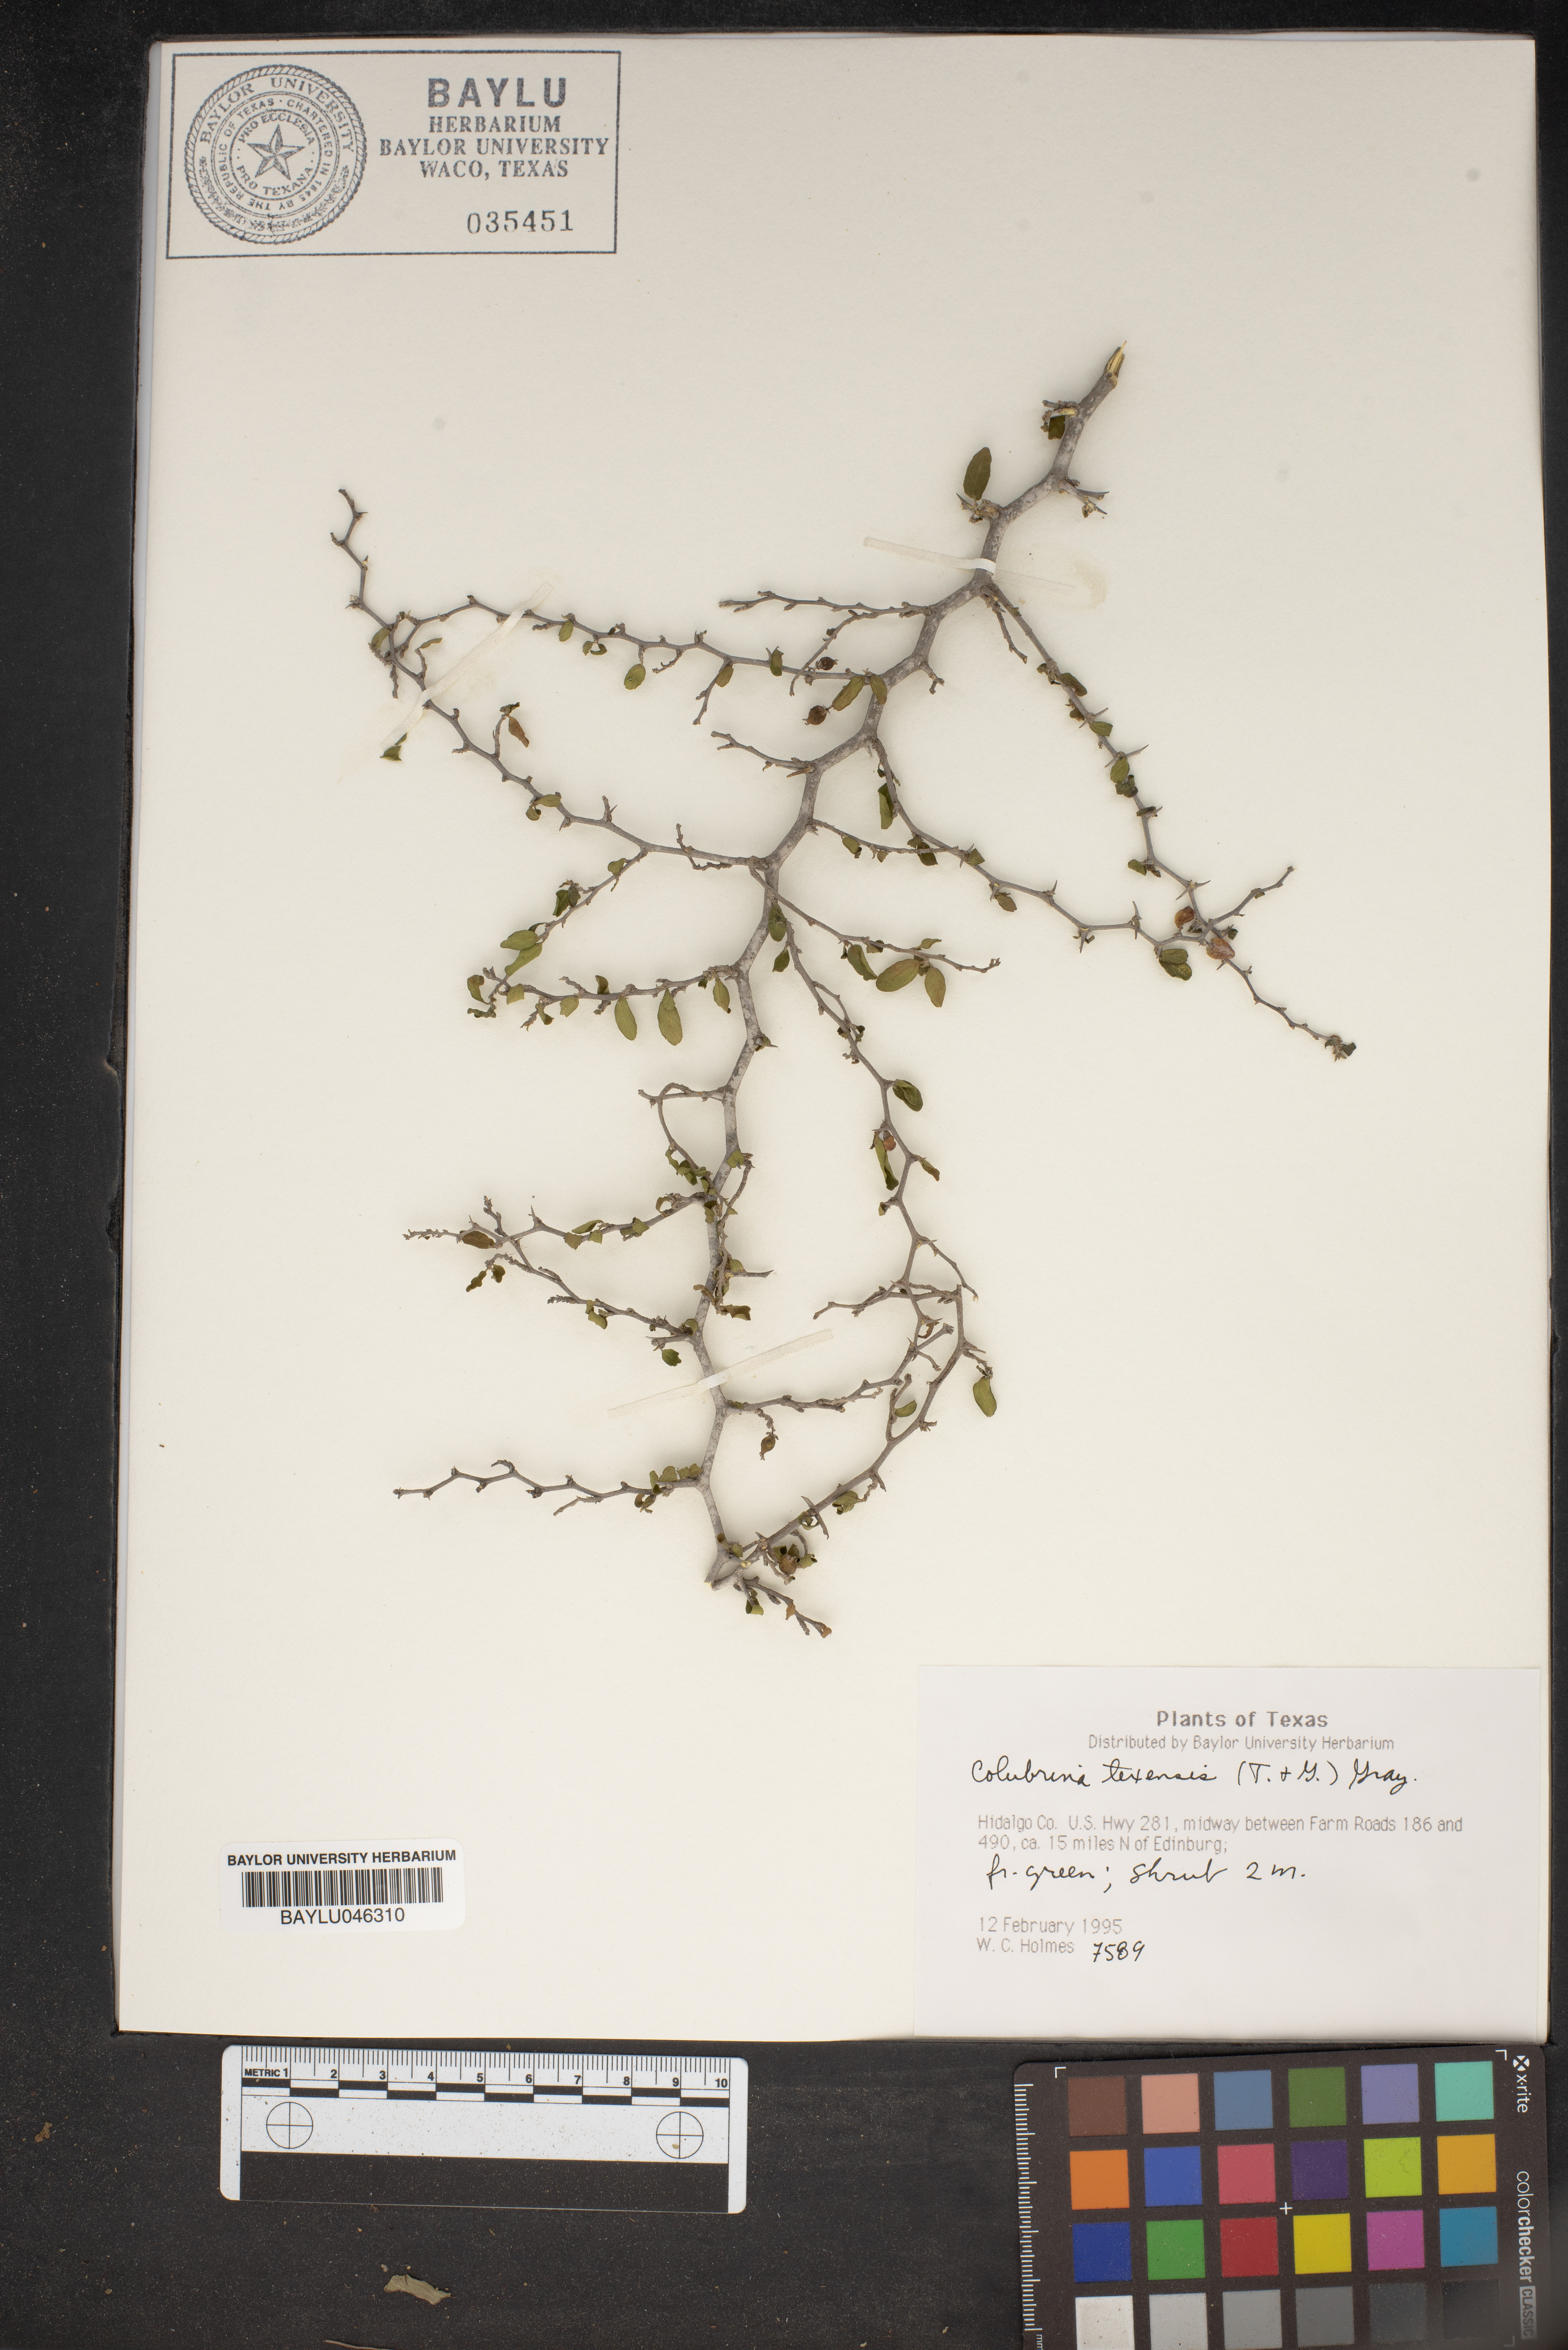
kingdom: Plantae
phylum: Tracheophyta
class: Magnoliopsida
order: Rosales
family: Rhamnaceae
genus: Colubrina
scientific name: Colubrina texensis
